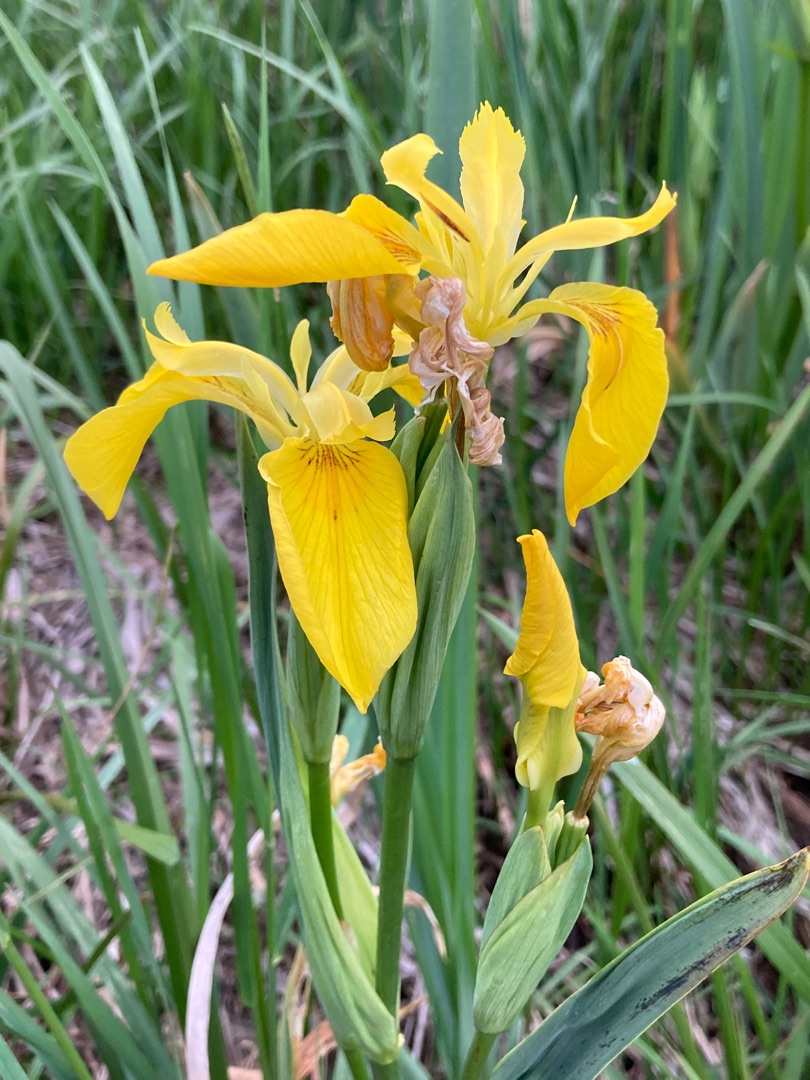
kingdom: Plantae
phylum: Tracheophyta
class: Liliopsida
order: Asparagales
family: Iridaceae
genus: Iris
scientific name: Iris pseudacorus
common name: Gul iris
